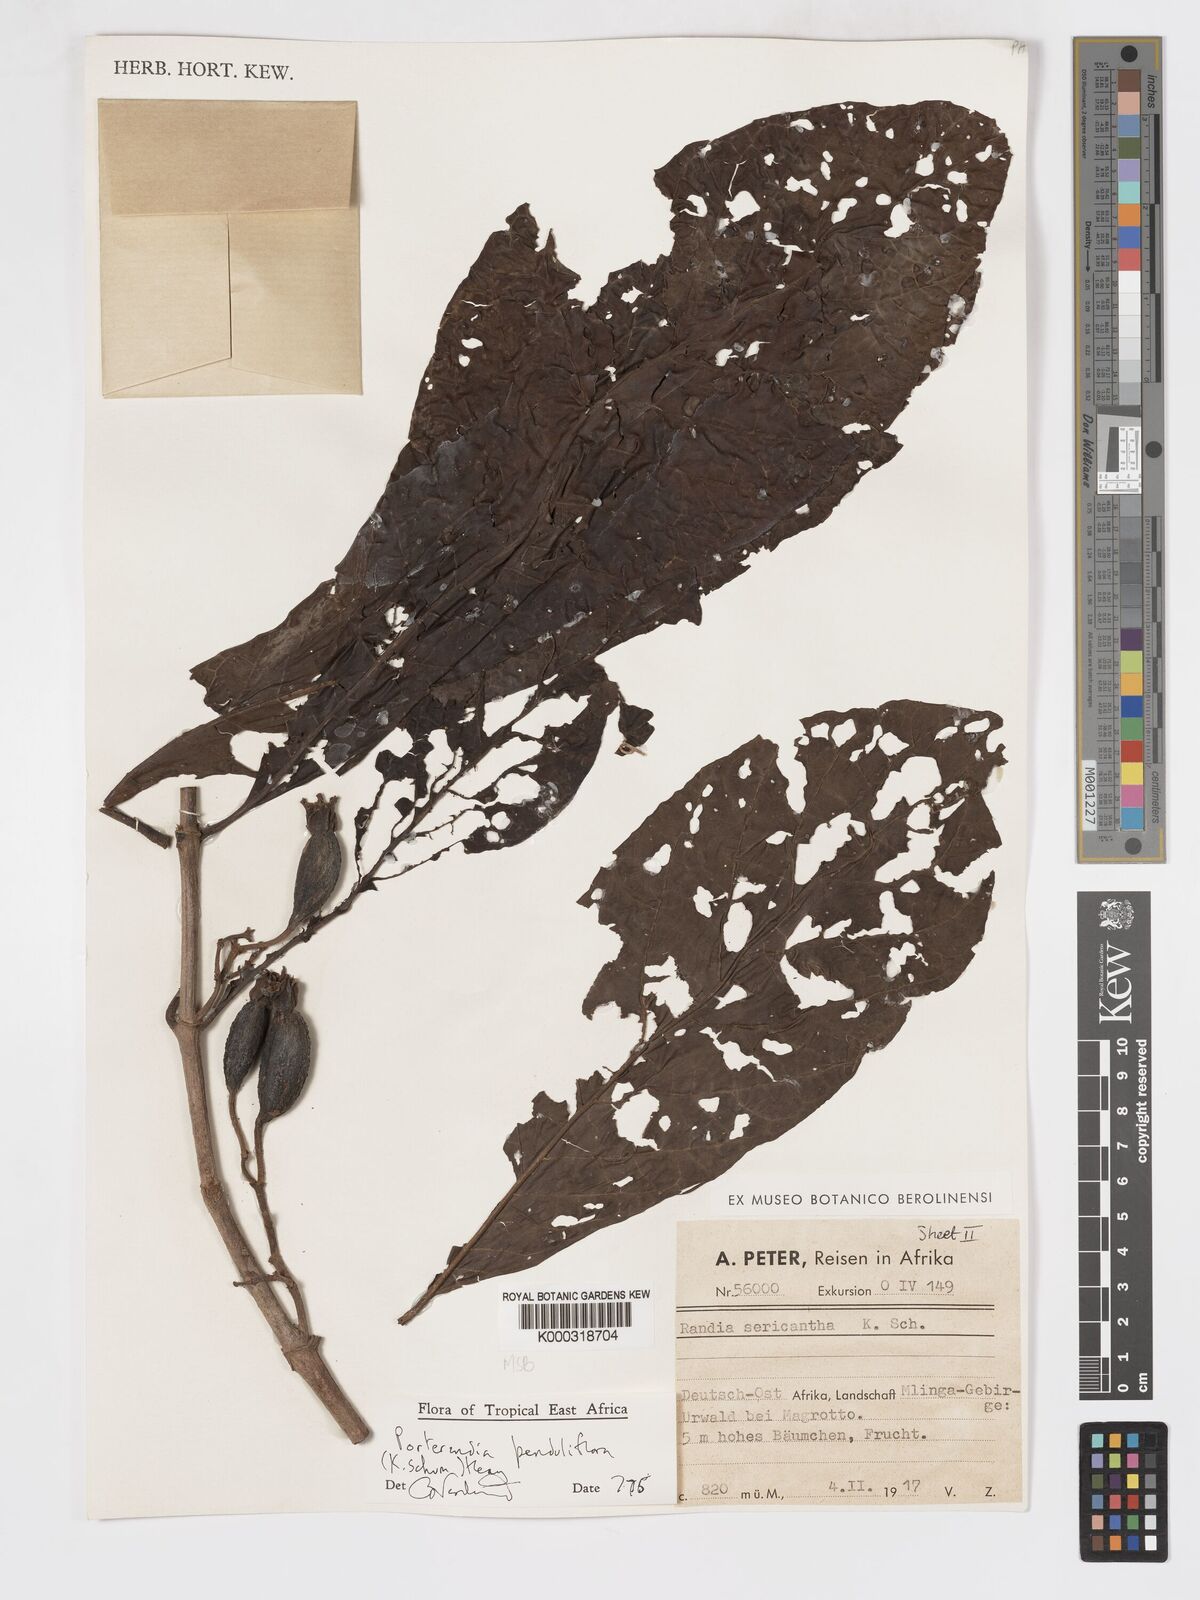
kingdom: Plantae
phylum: Tracheophyta
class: Magnoliopsida
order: Gentianales
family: Rubiaceae
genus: Aoranthe
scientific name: Aoranthe penduliflora
